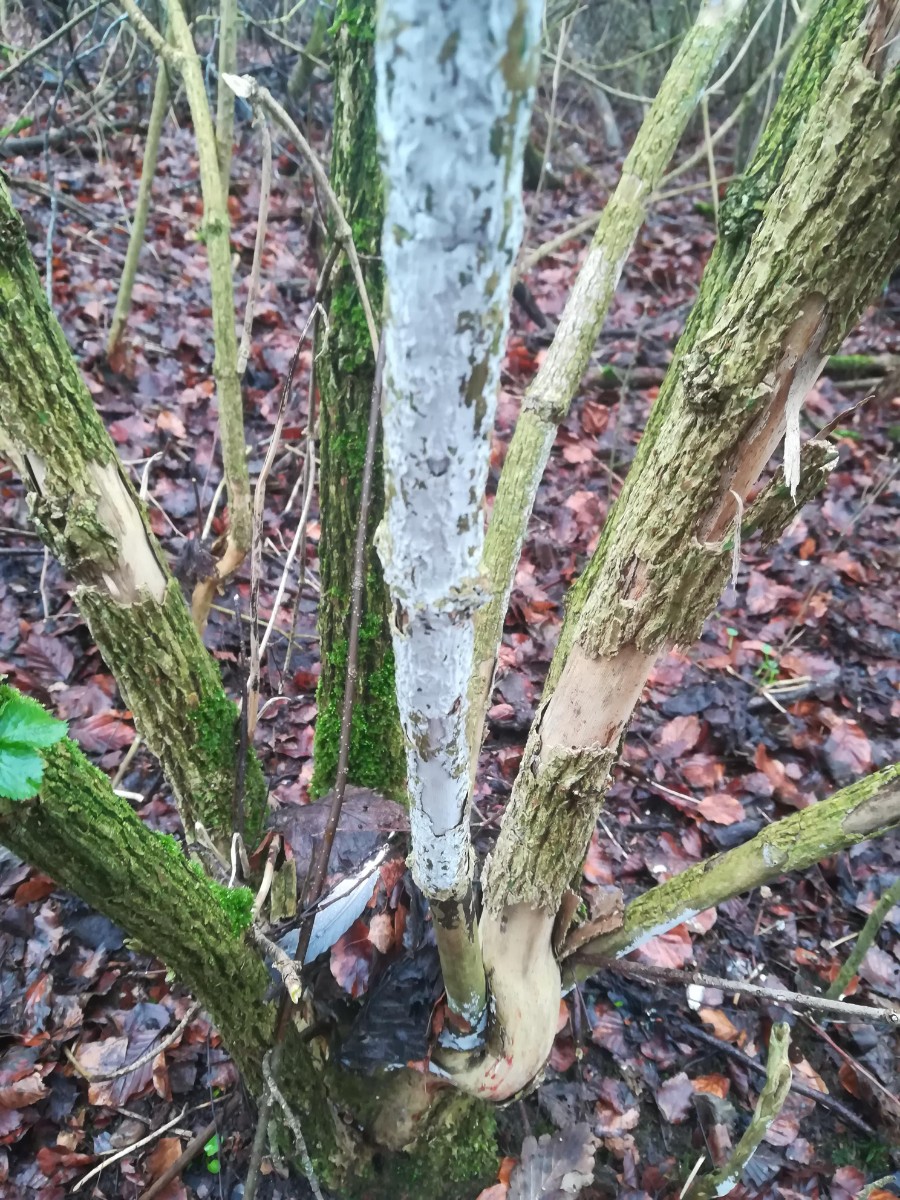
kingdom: Fungi
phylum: Basidiomycota
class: Agaricomycetes
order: Corticiales
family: Corticiaceae
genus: Lyomyces
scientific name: Lyomyces sambuci
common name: almindelig hyldehinde
